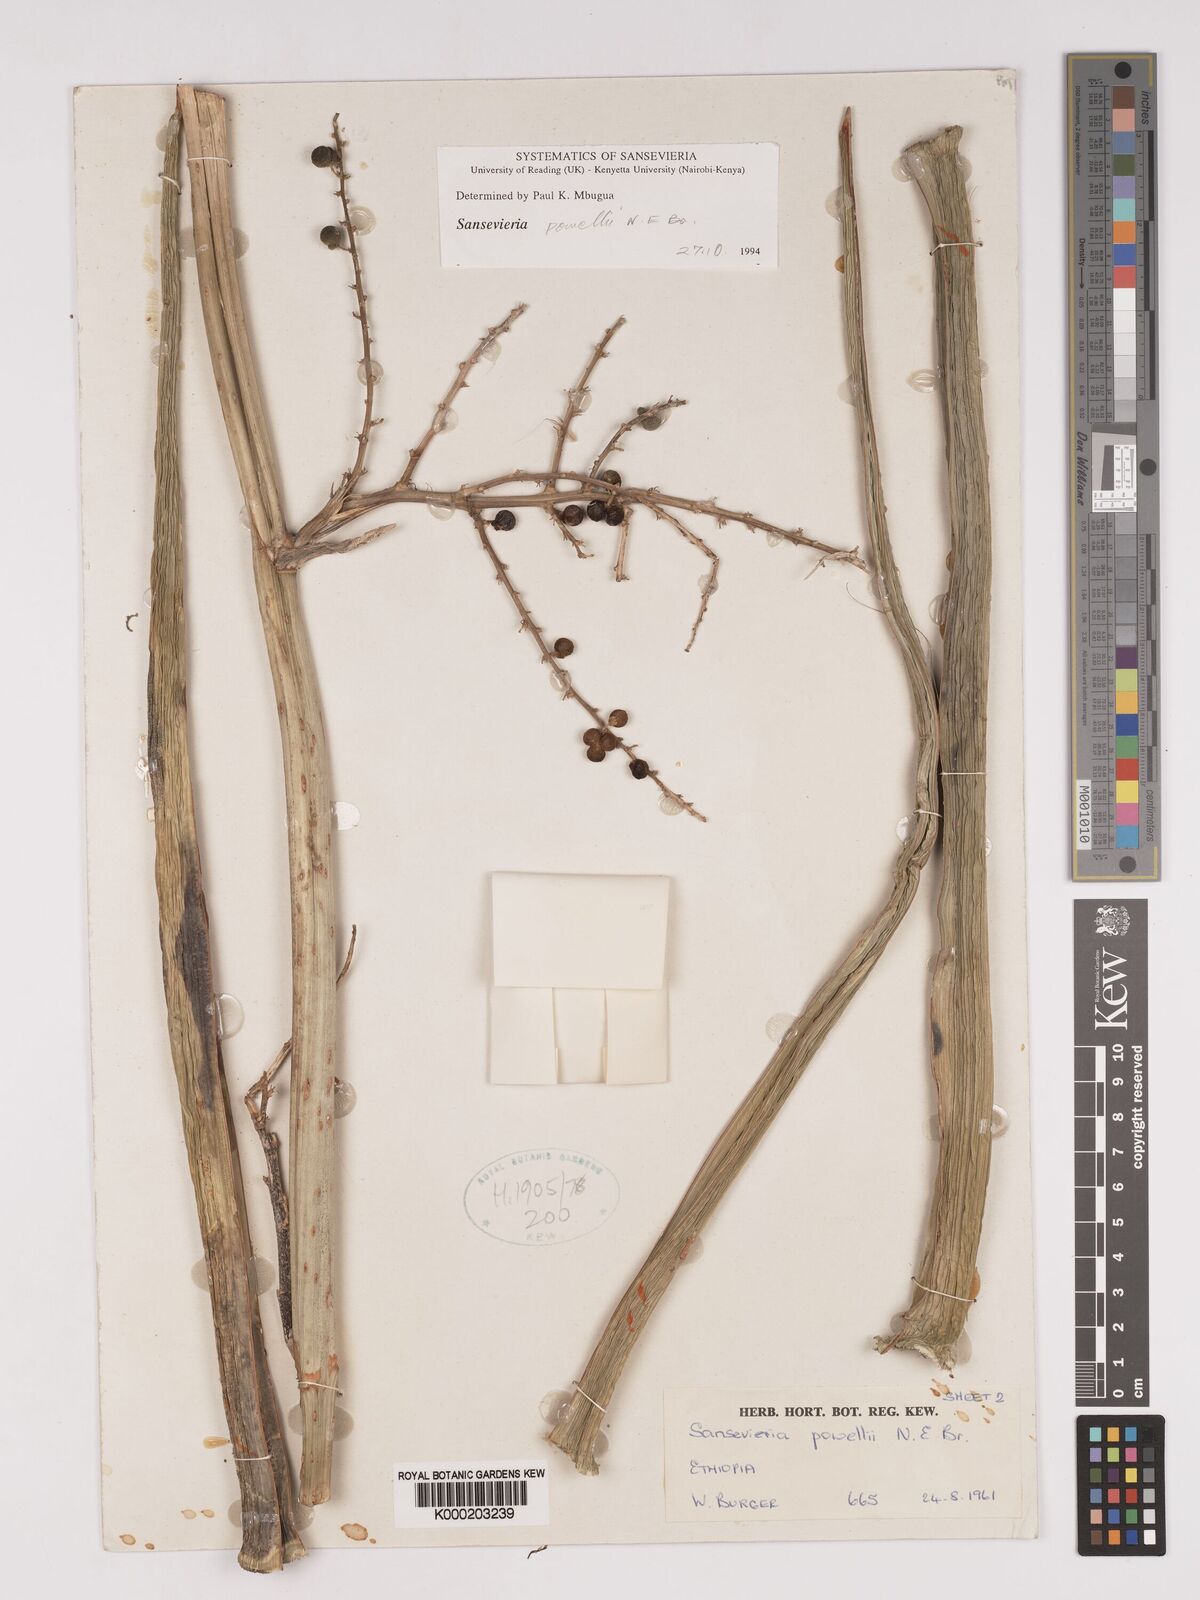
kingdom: Plantae
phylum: Tracheophyta
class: Liliopsida
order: Asparagales
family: Asparagaceae
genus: Dracaena
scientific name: Dracaena powellii
